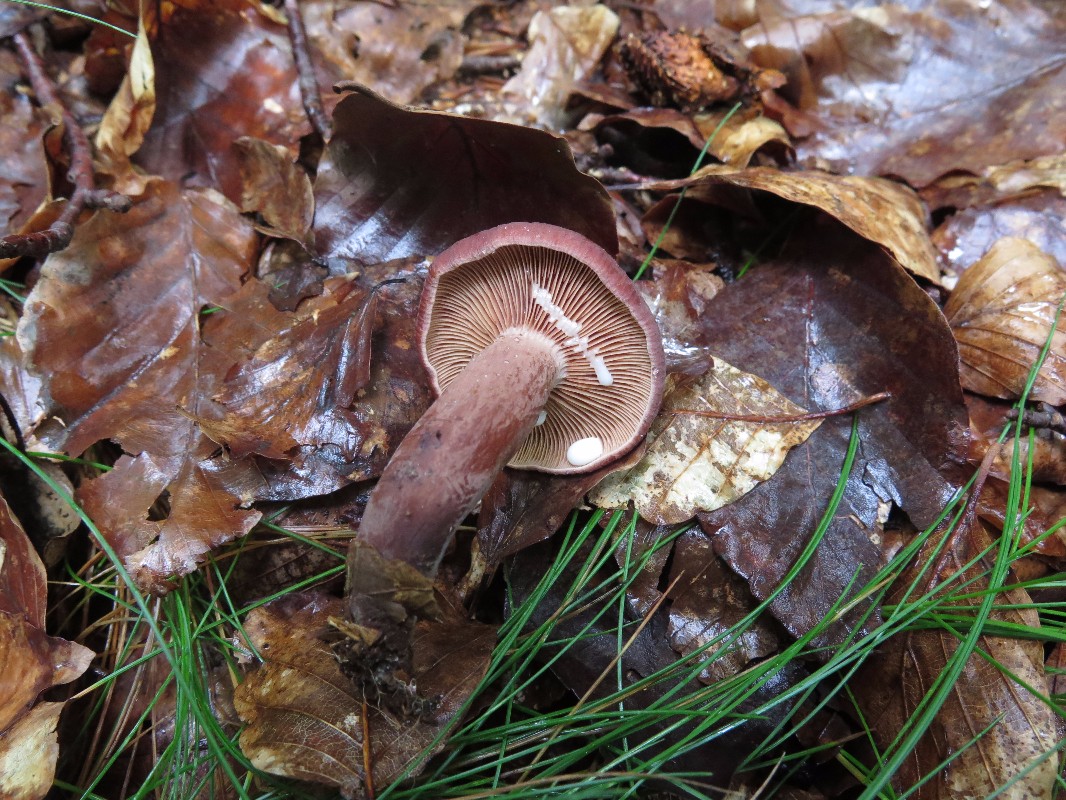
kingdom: Fungi
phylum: Basidiomycota
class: Agaricomycetes
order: Russulales
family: Russulaceae
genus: Lactarius
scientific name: Lactarius camphoratus
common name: kamfer-mælkehat
